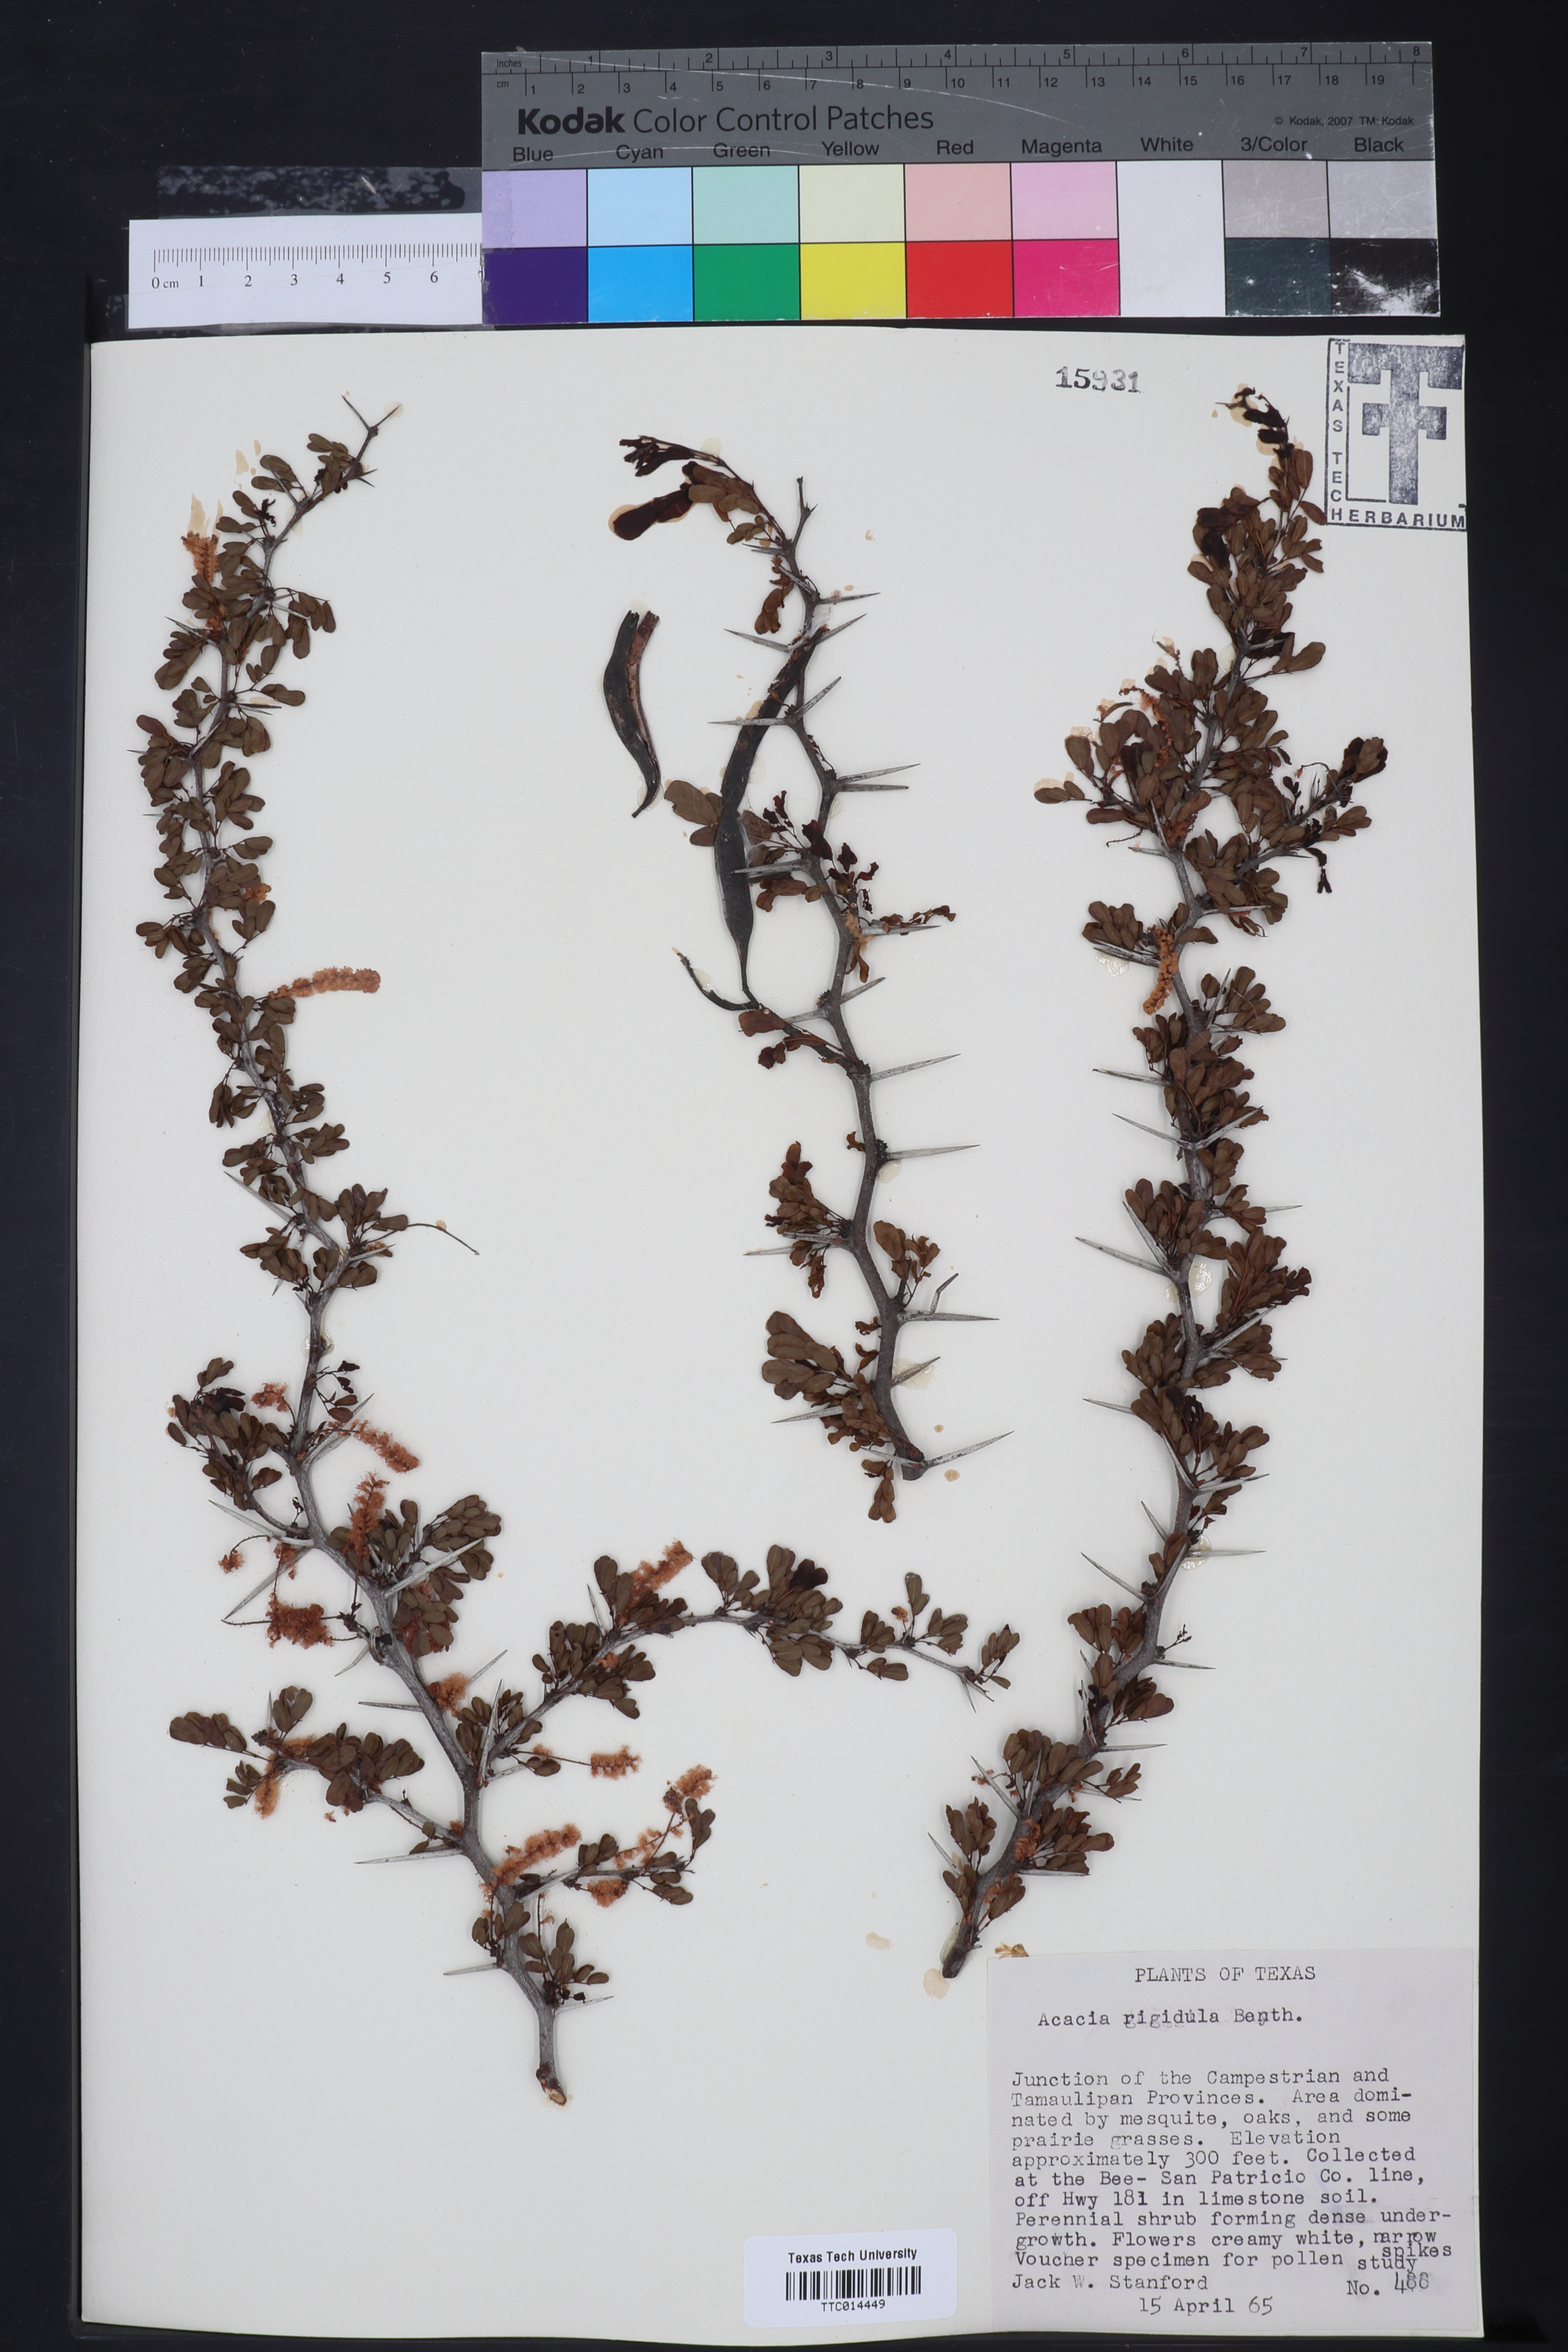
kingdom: Plantae
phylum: Tracheophyta
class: Magnoliopsida
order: Fabales
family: Fabaceae
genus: Vachellia
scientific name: Vachellia rigidula
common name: Blackbrush
